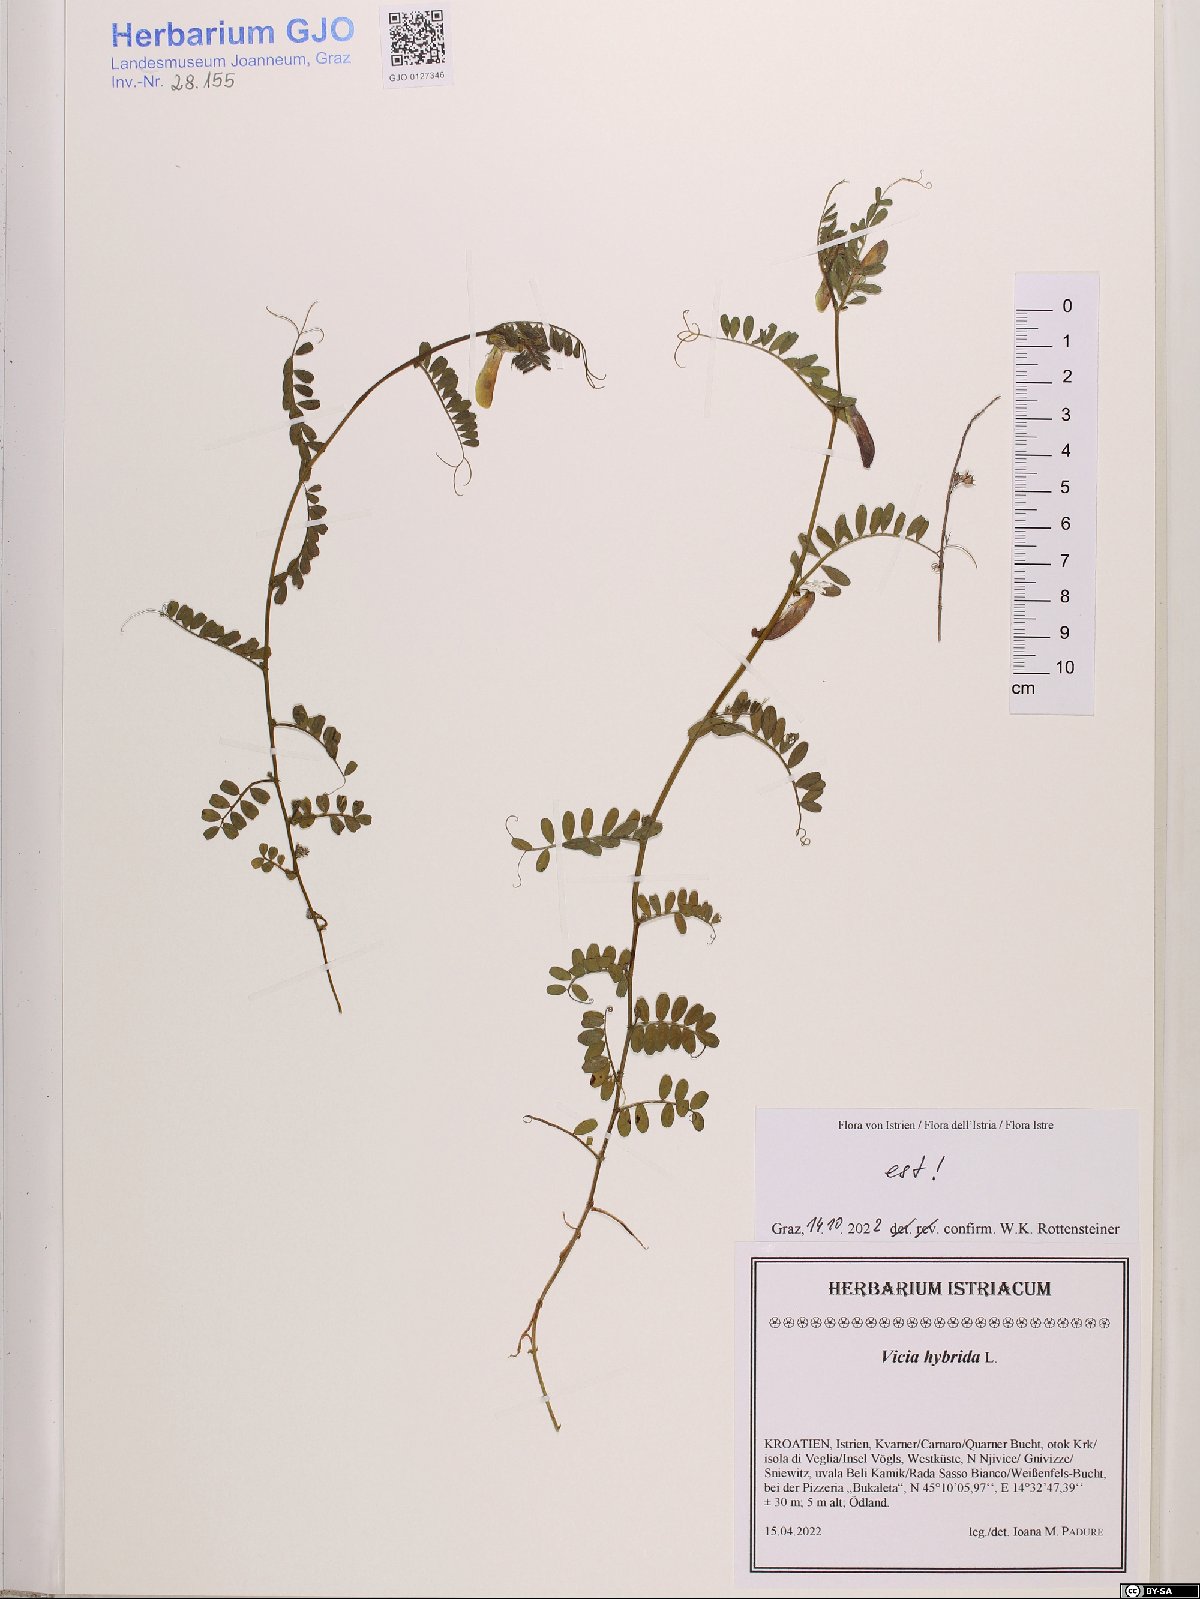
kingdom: Plantae
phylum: Tracheophyta
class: Magnoliopsida
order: Fabales
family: Fabaceae
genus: Vicia
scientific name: Vicia hybrida
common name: Hairy yellow vetch
